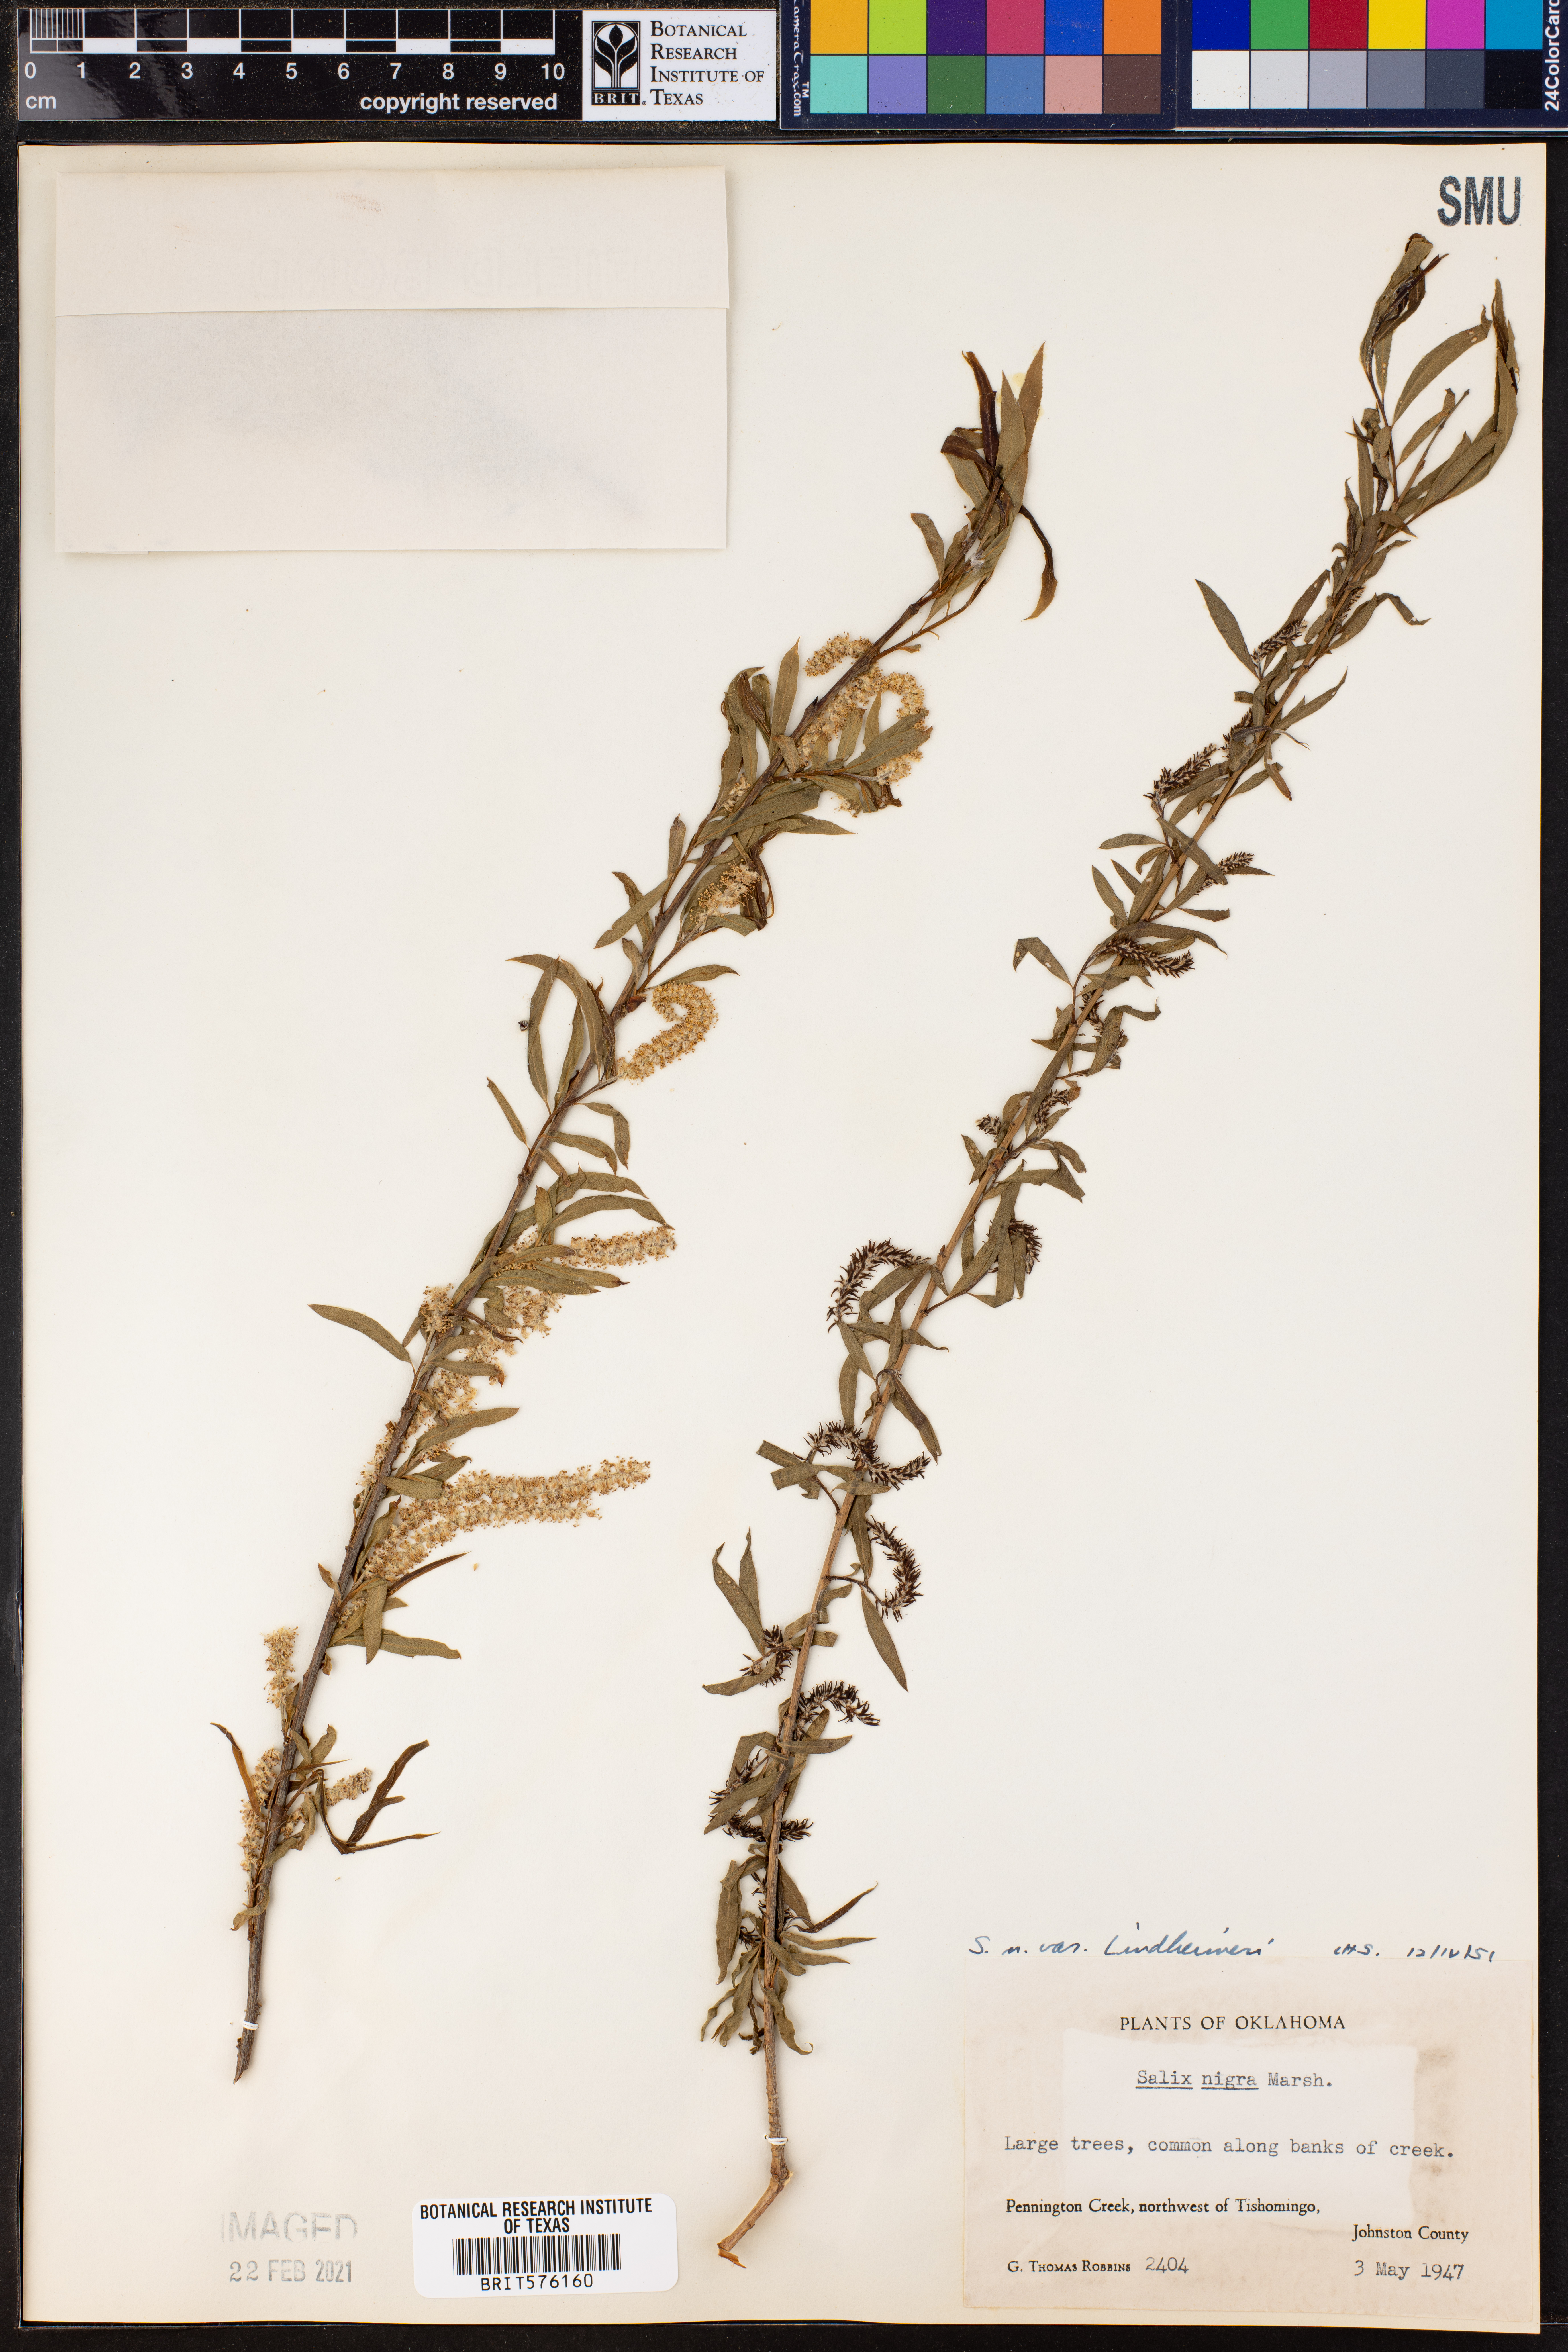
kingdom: Plantae
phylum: Tracheophyta
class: Magnoliopsida
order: Malpighiales
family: Salicaceae
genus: Salix
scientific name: Salix nigra
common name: Black willow
